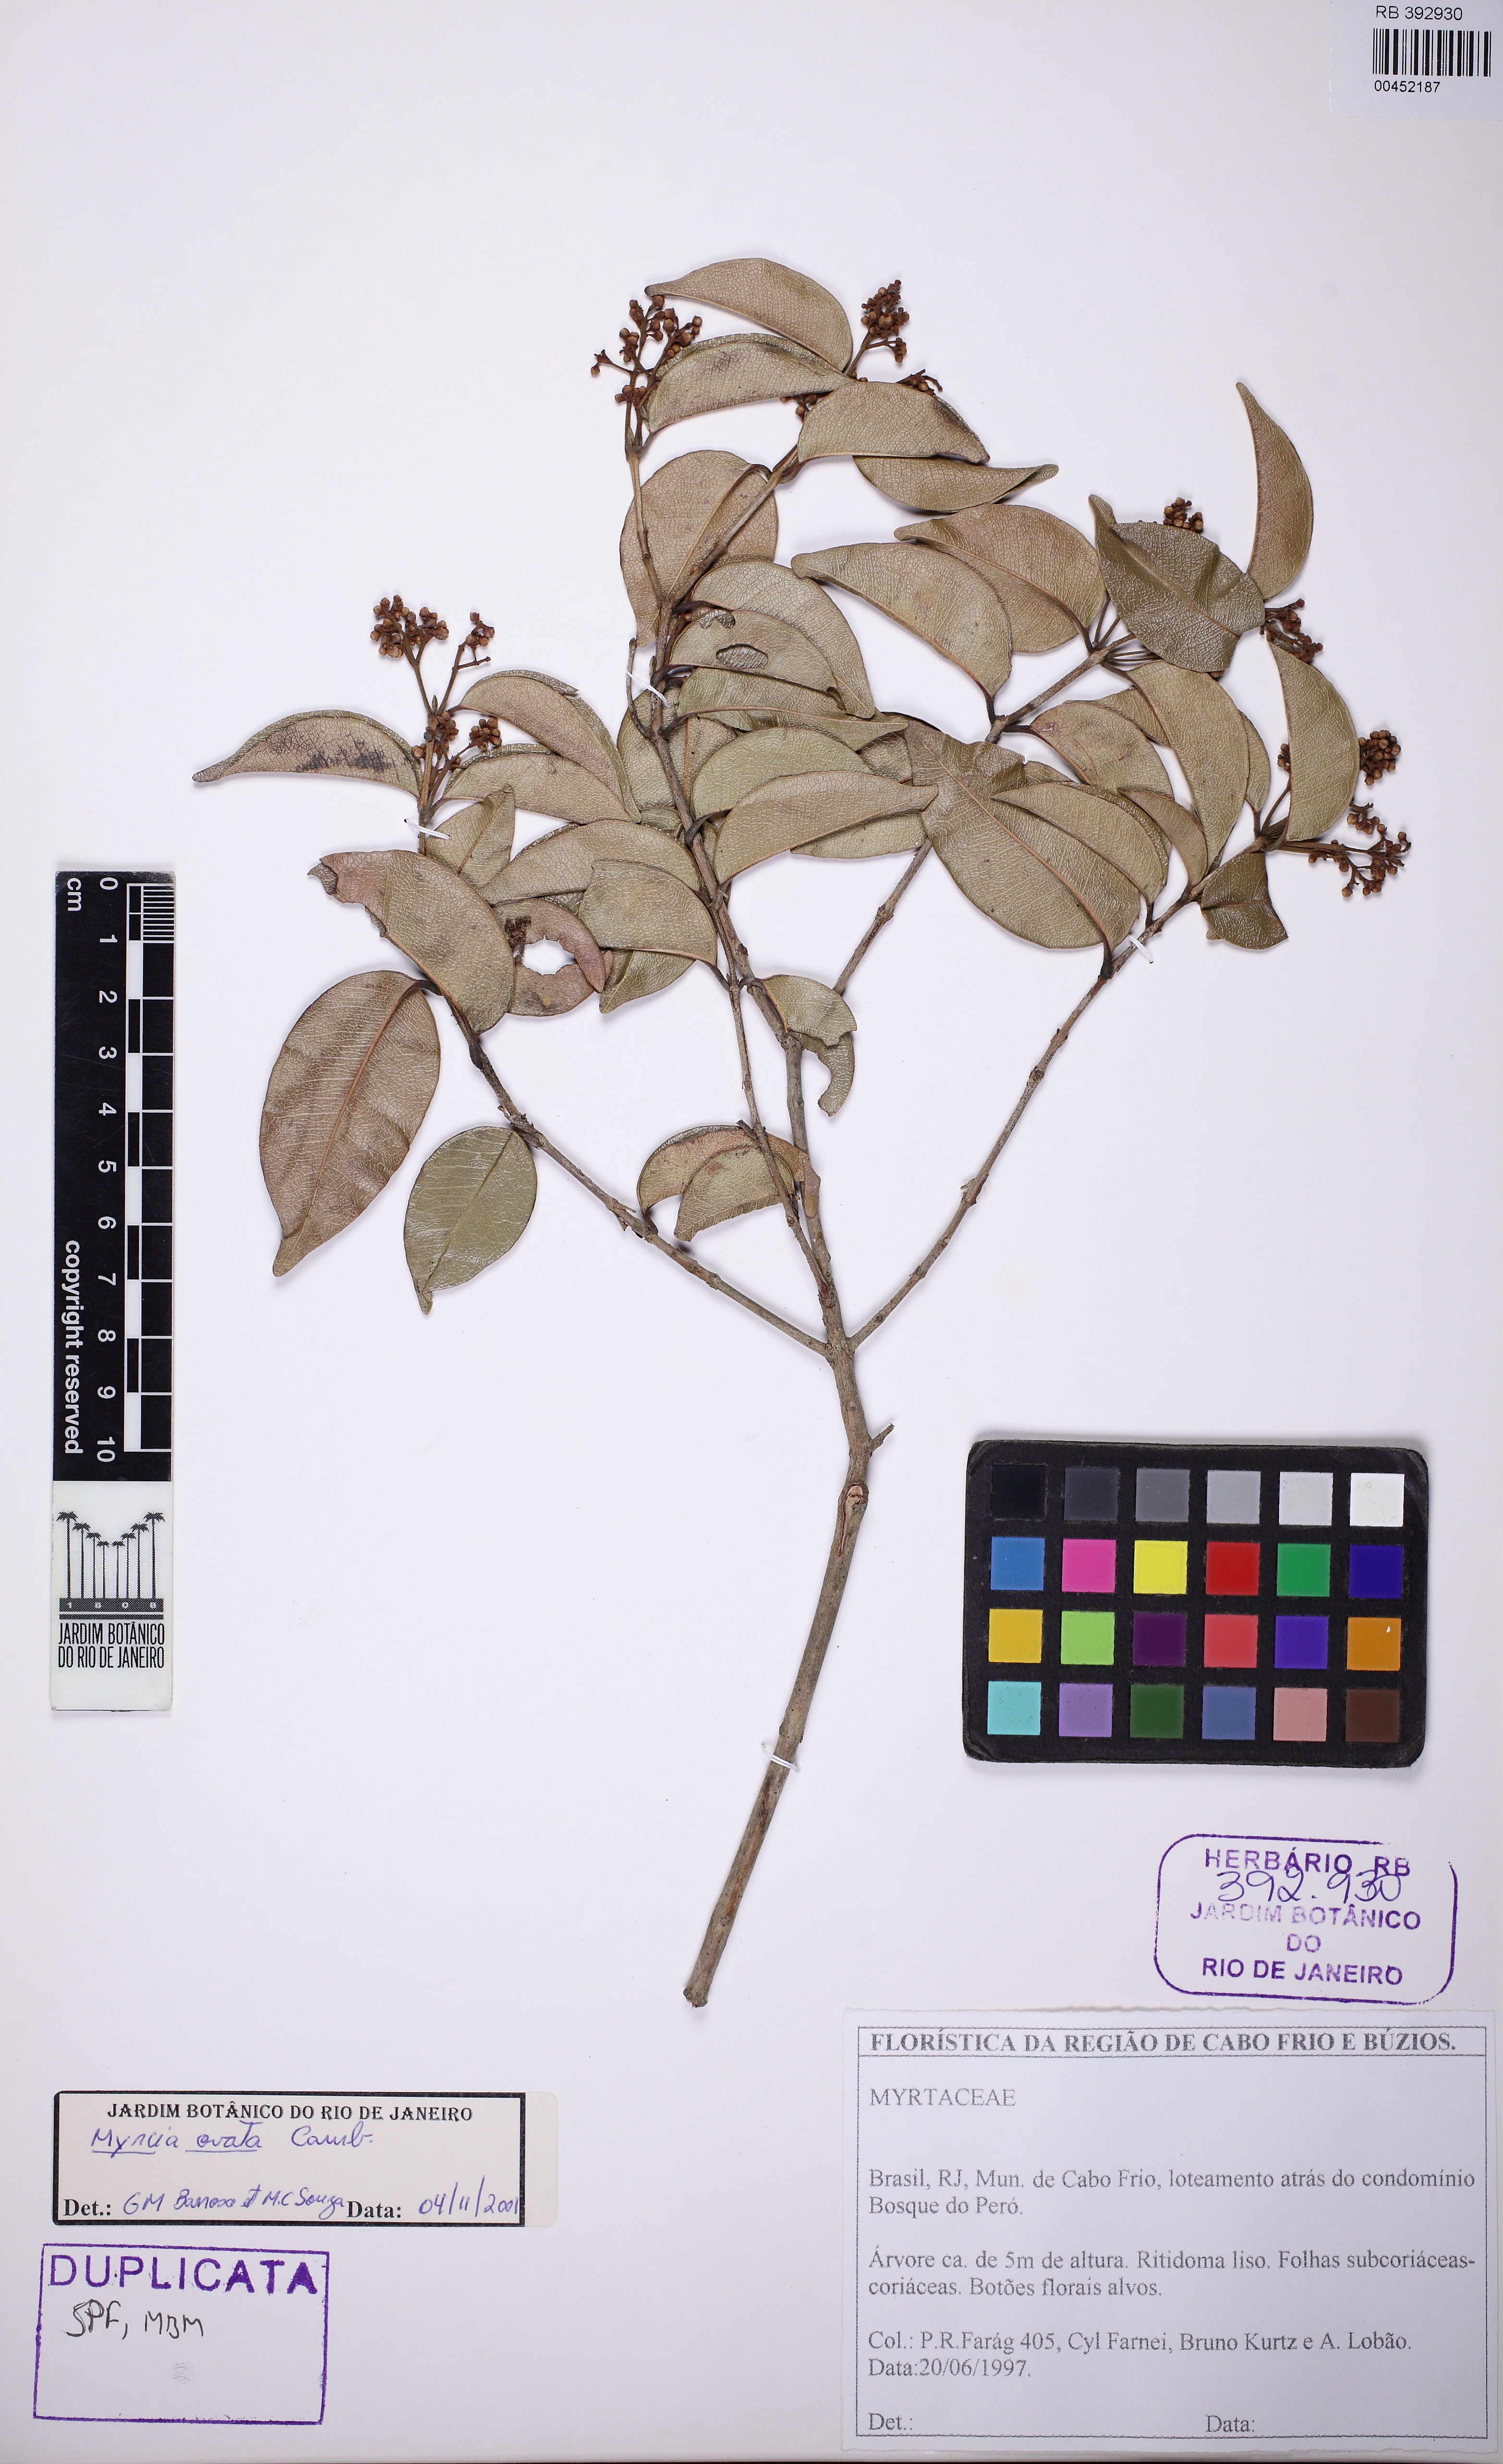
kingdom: Plantae
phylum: Tracheophyta
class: Magnoliopsida
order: Myrtales
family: Myrtaceae
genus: Myrcia
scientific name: Myrcia ovata
